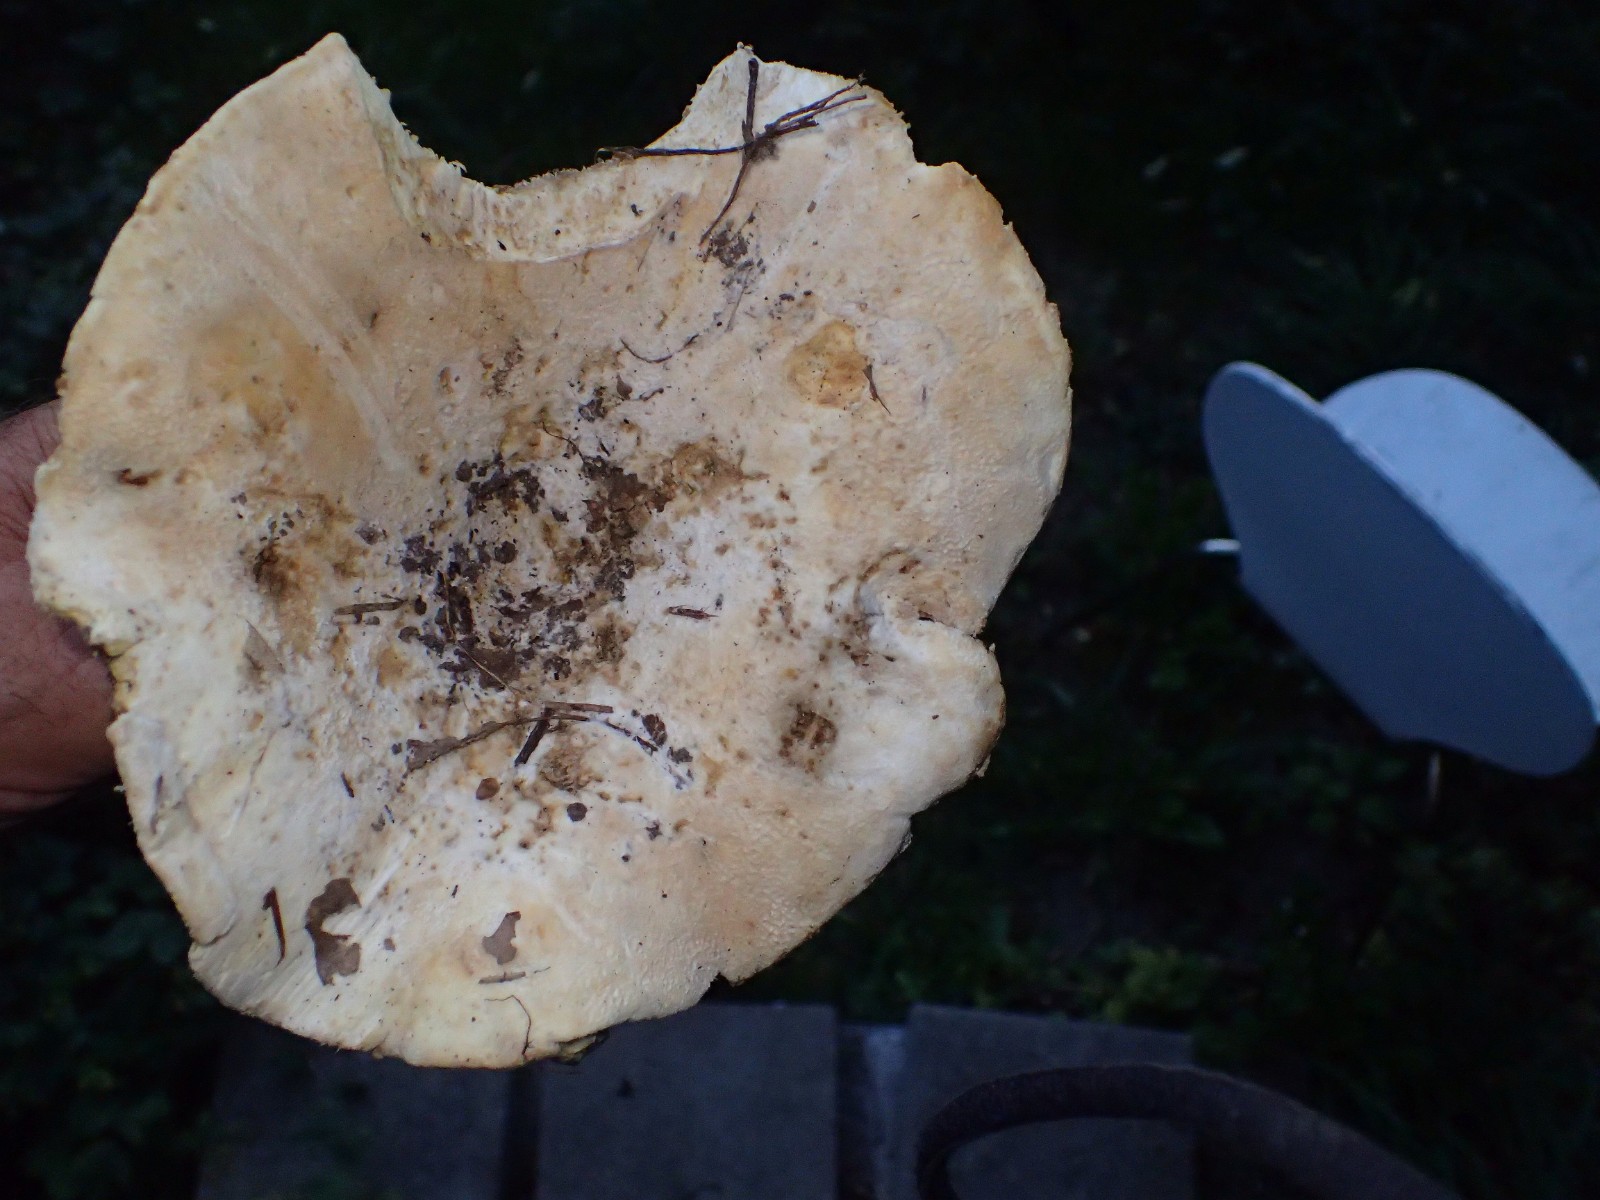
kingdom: Fungi
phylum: Basidiomycota
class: Agaricomycetes
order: Russulales
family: Russulaceae
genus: Russula
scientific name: Russula
